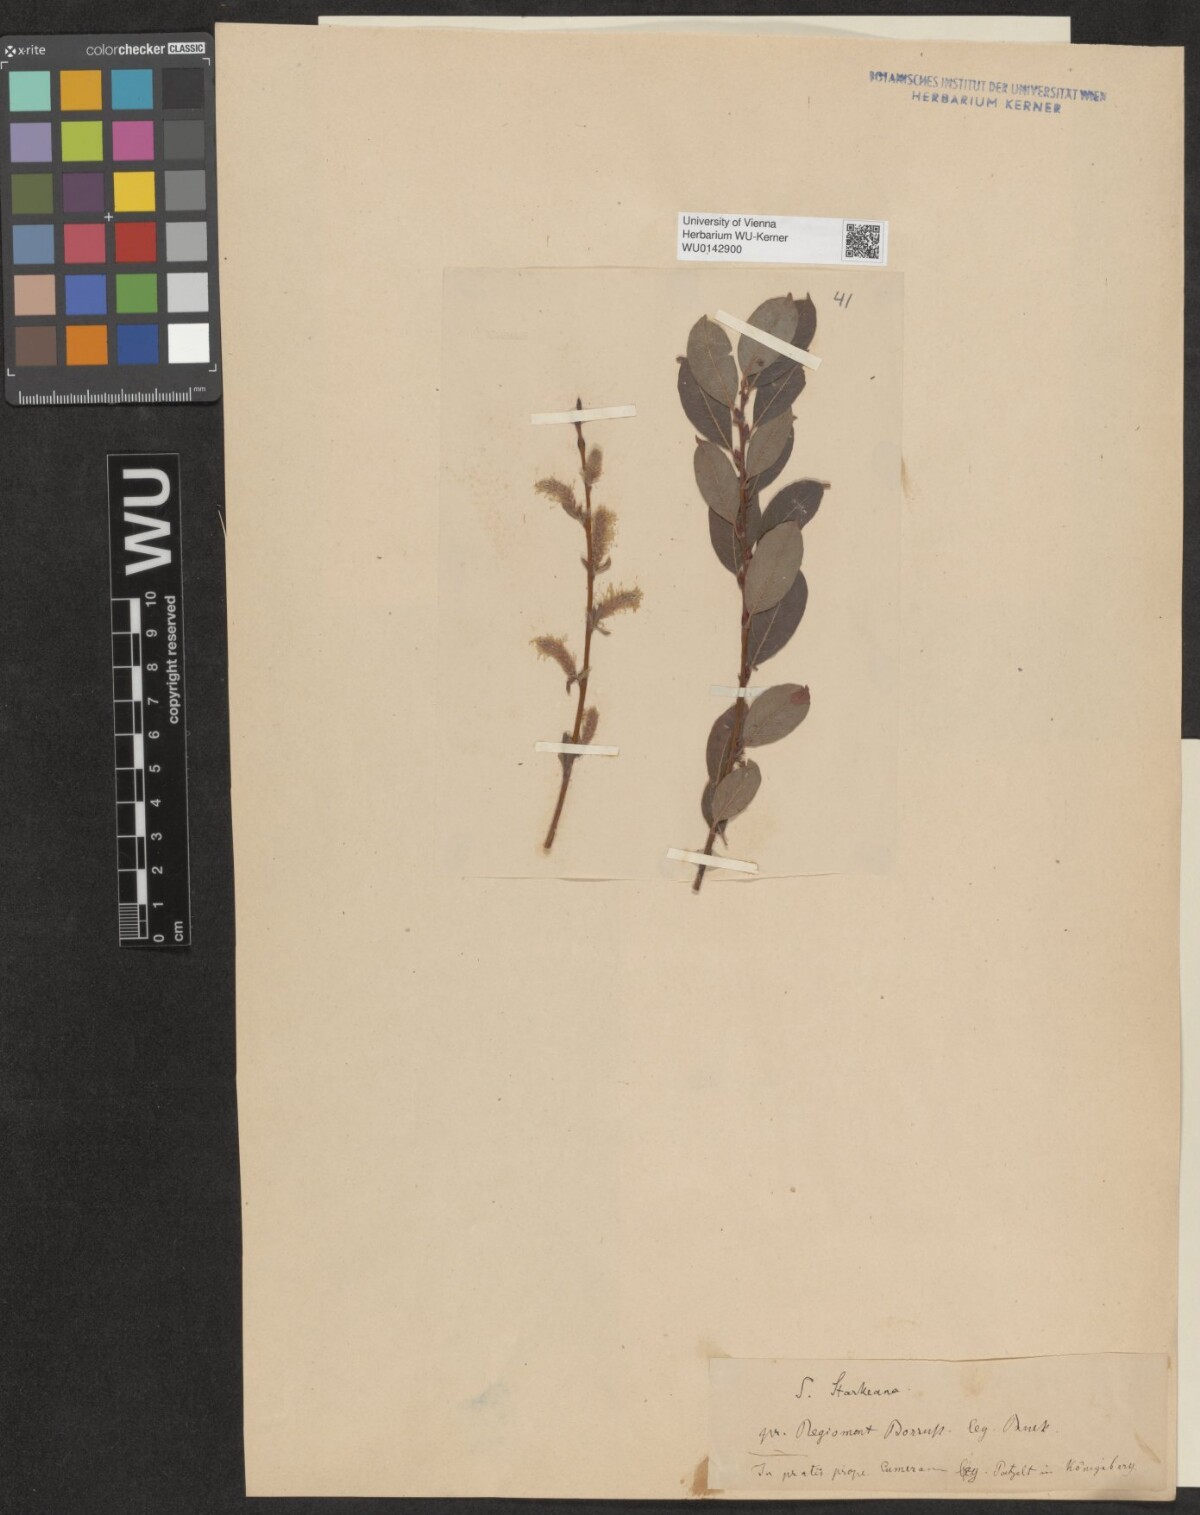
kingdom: Plantae
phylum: Tracheophyta
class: Magnoliopsida
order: Malpighiales
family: Salicaceae
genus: Salix
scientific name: Salix starkeana
